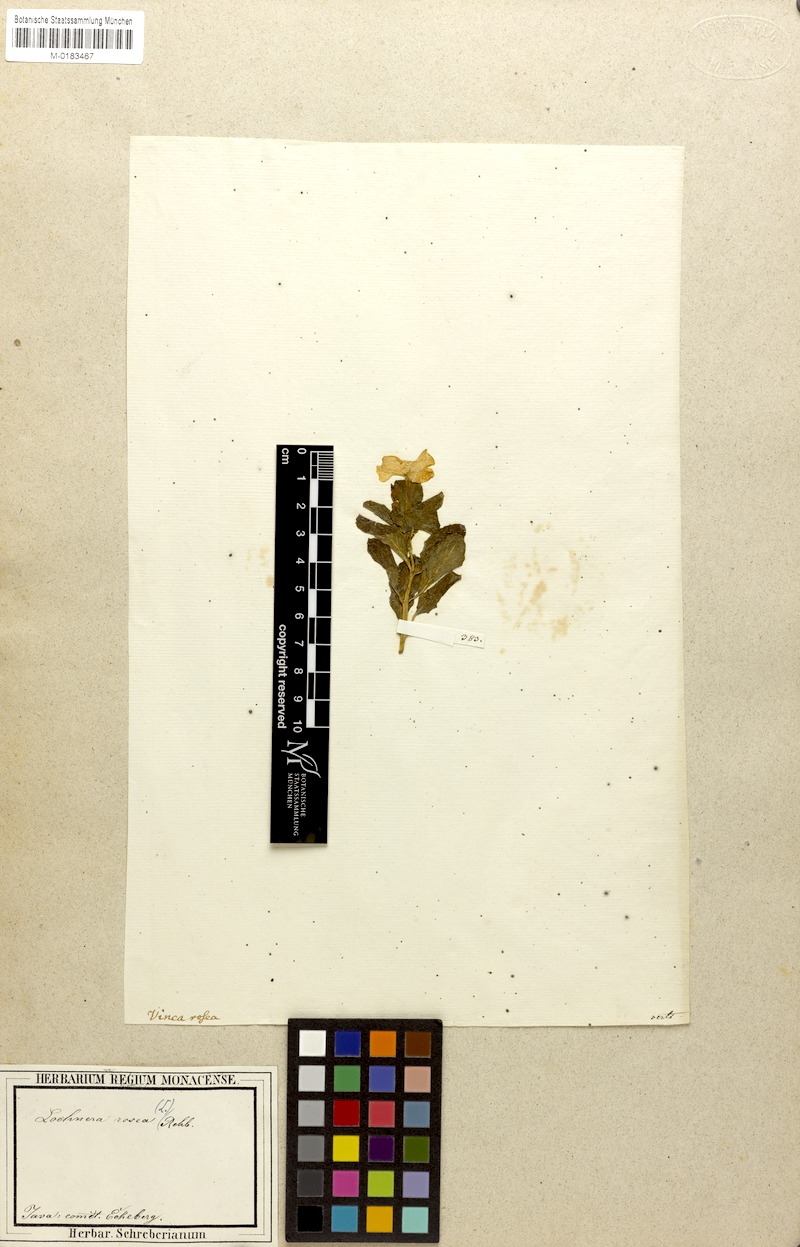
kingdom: Plantae
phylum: Tracheophyta
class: Magnoliopsida
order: Gentianales
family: Apocynaceae
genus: Catharanthus
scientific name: Catharanthus roseus
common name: Madagascar periwinkle
